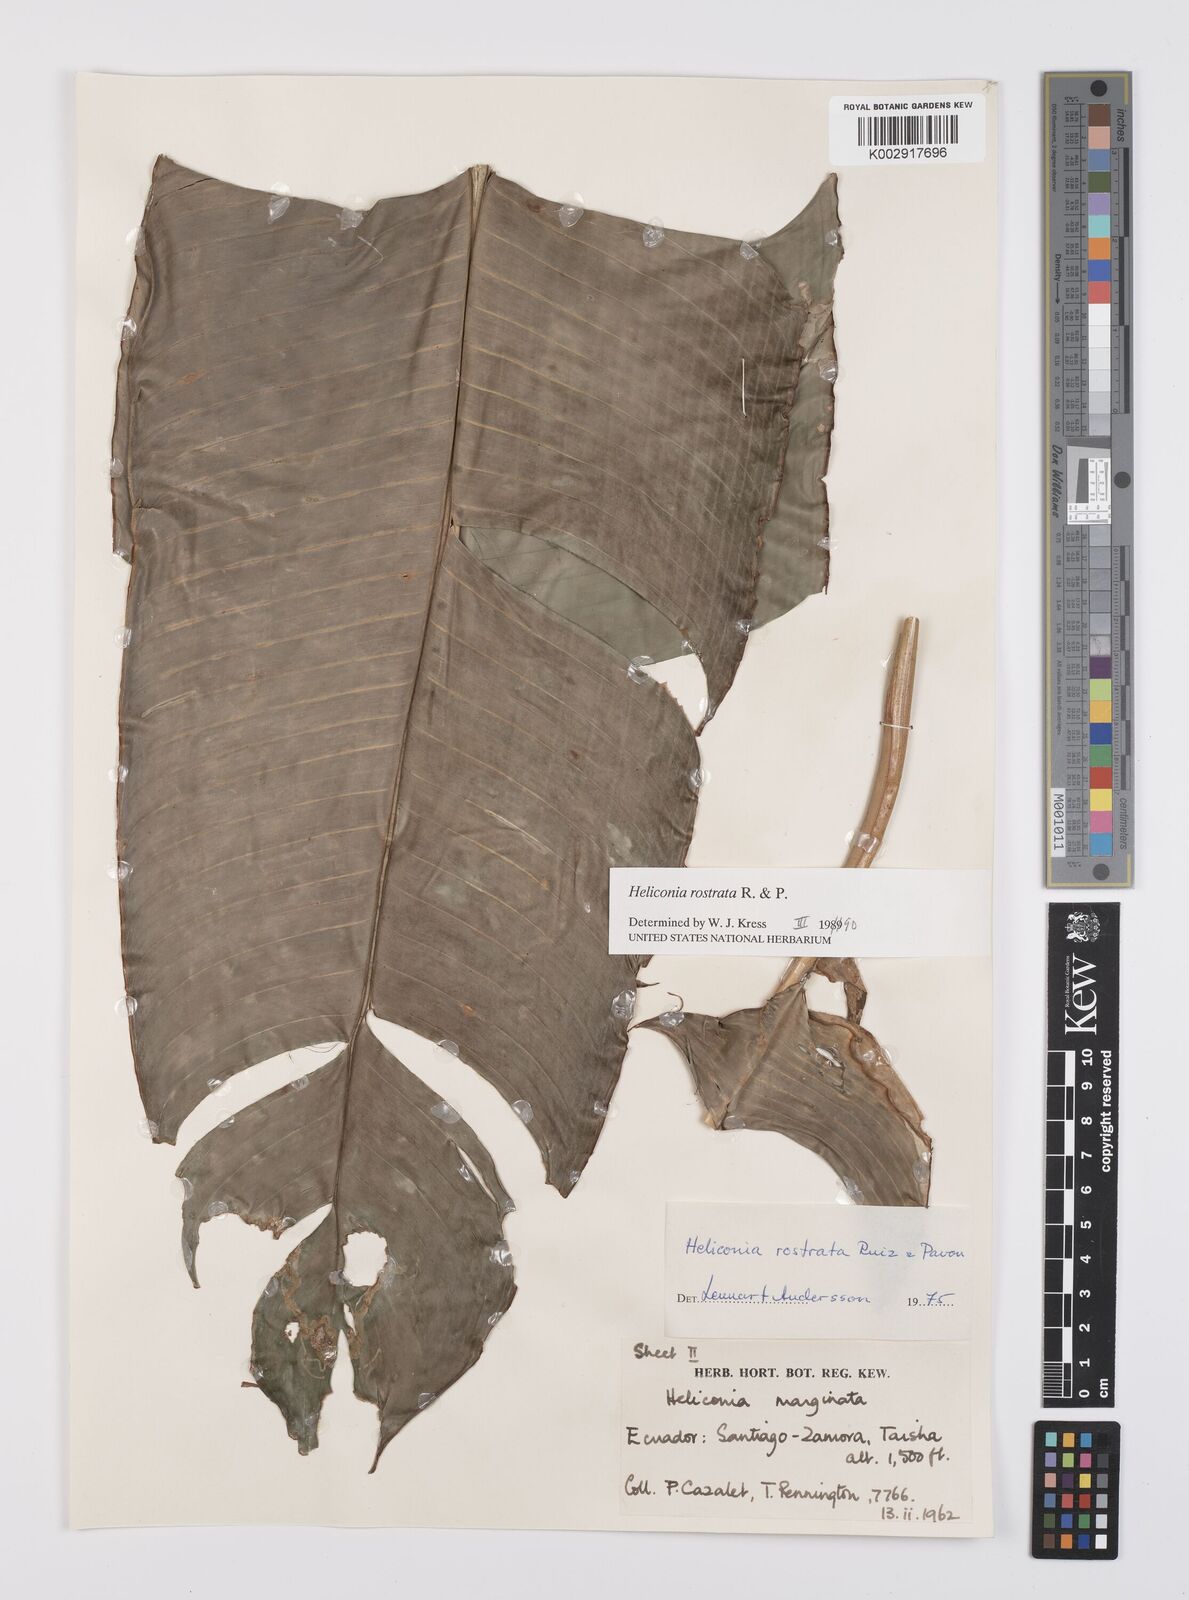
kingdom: Plantae
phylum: Tracheophyta
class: Liliopsida
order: Zingiberales
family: Heliconiaceae
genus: Heliconia
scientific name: Heliconia rostrata
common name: False bird of paradise
